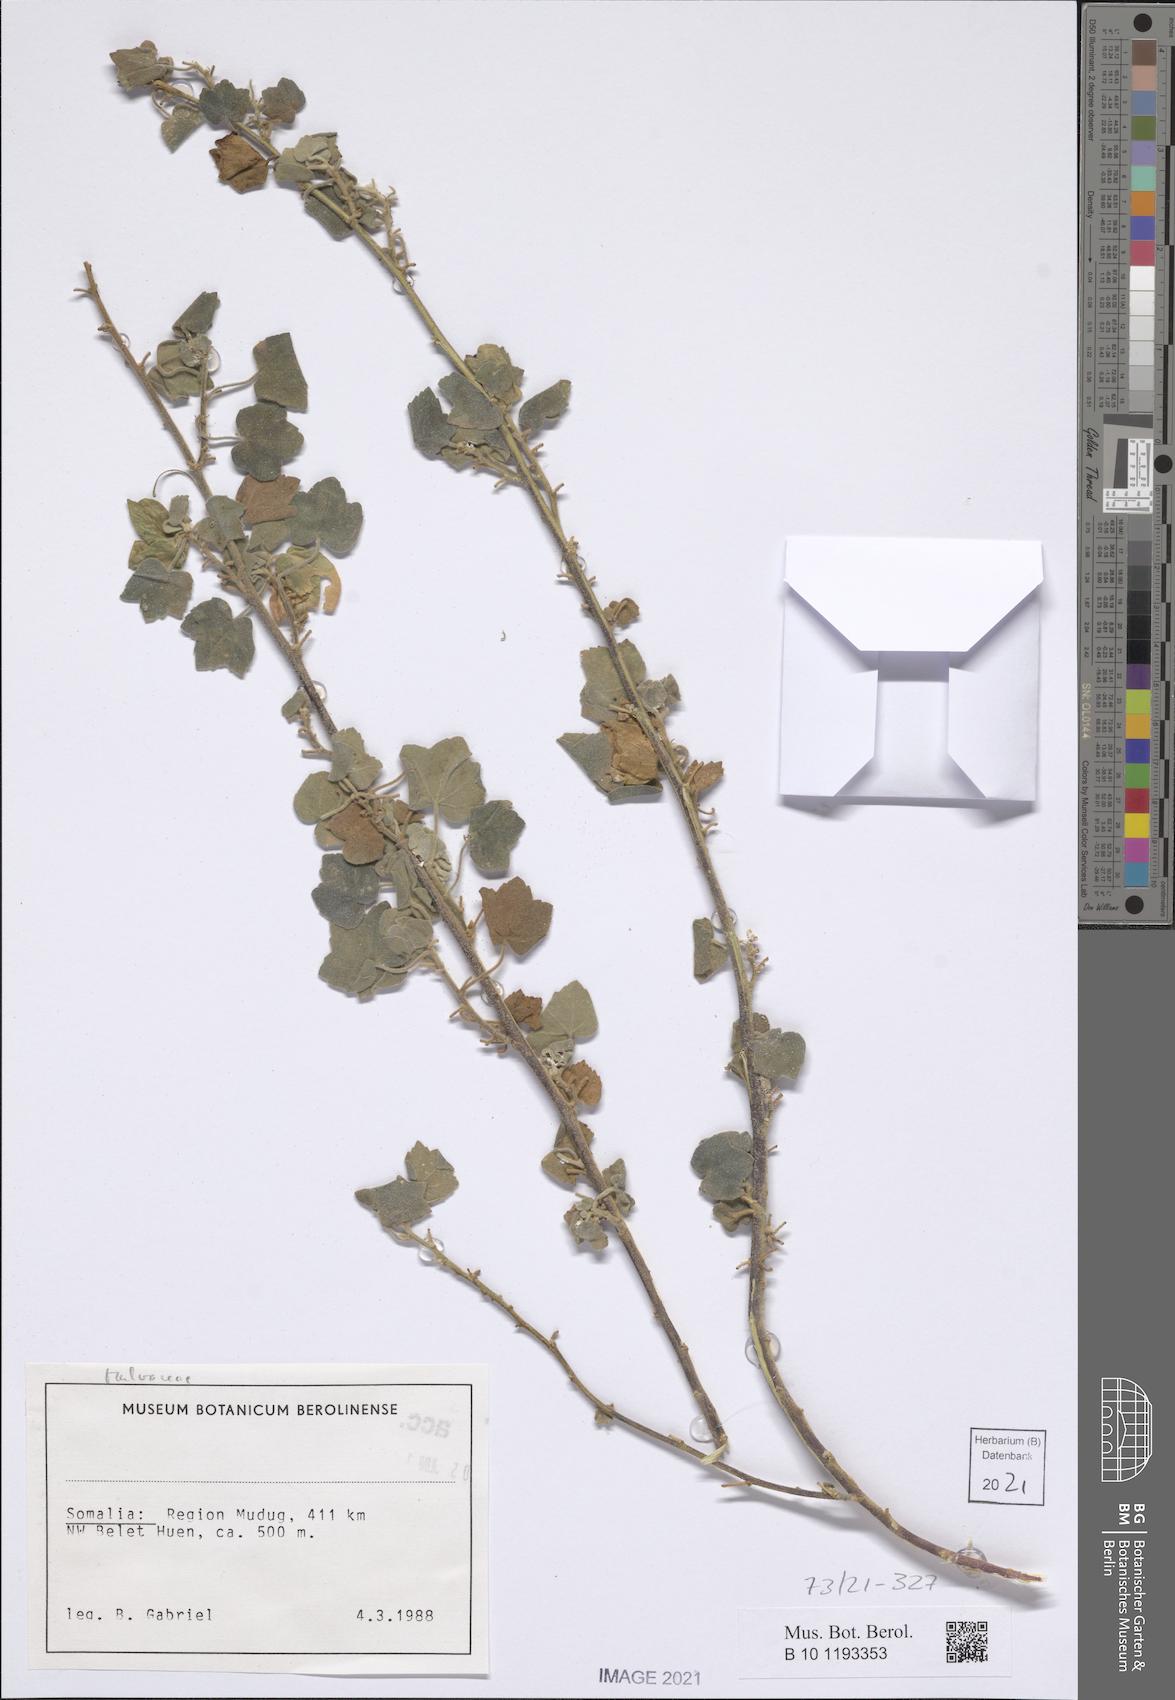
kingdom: Plantae
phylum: Tracheophyta
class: Magnoliopsida
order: Malvales
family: Malvaceae
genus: Senra
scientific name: Senra incana
